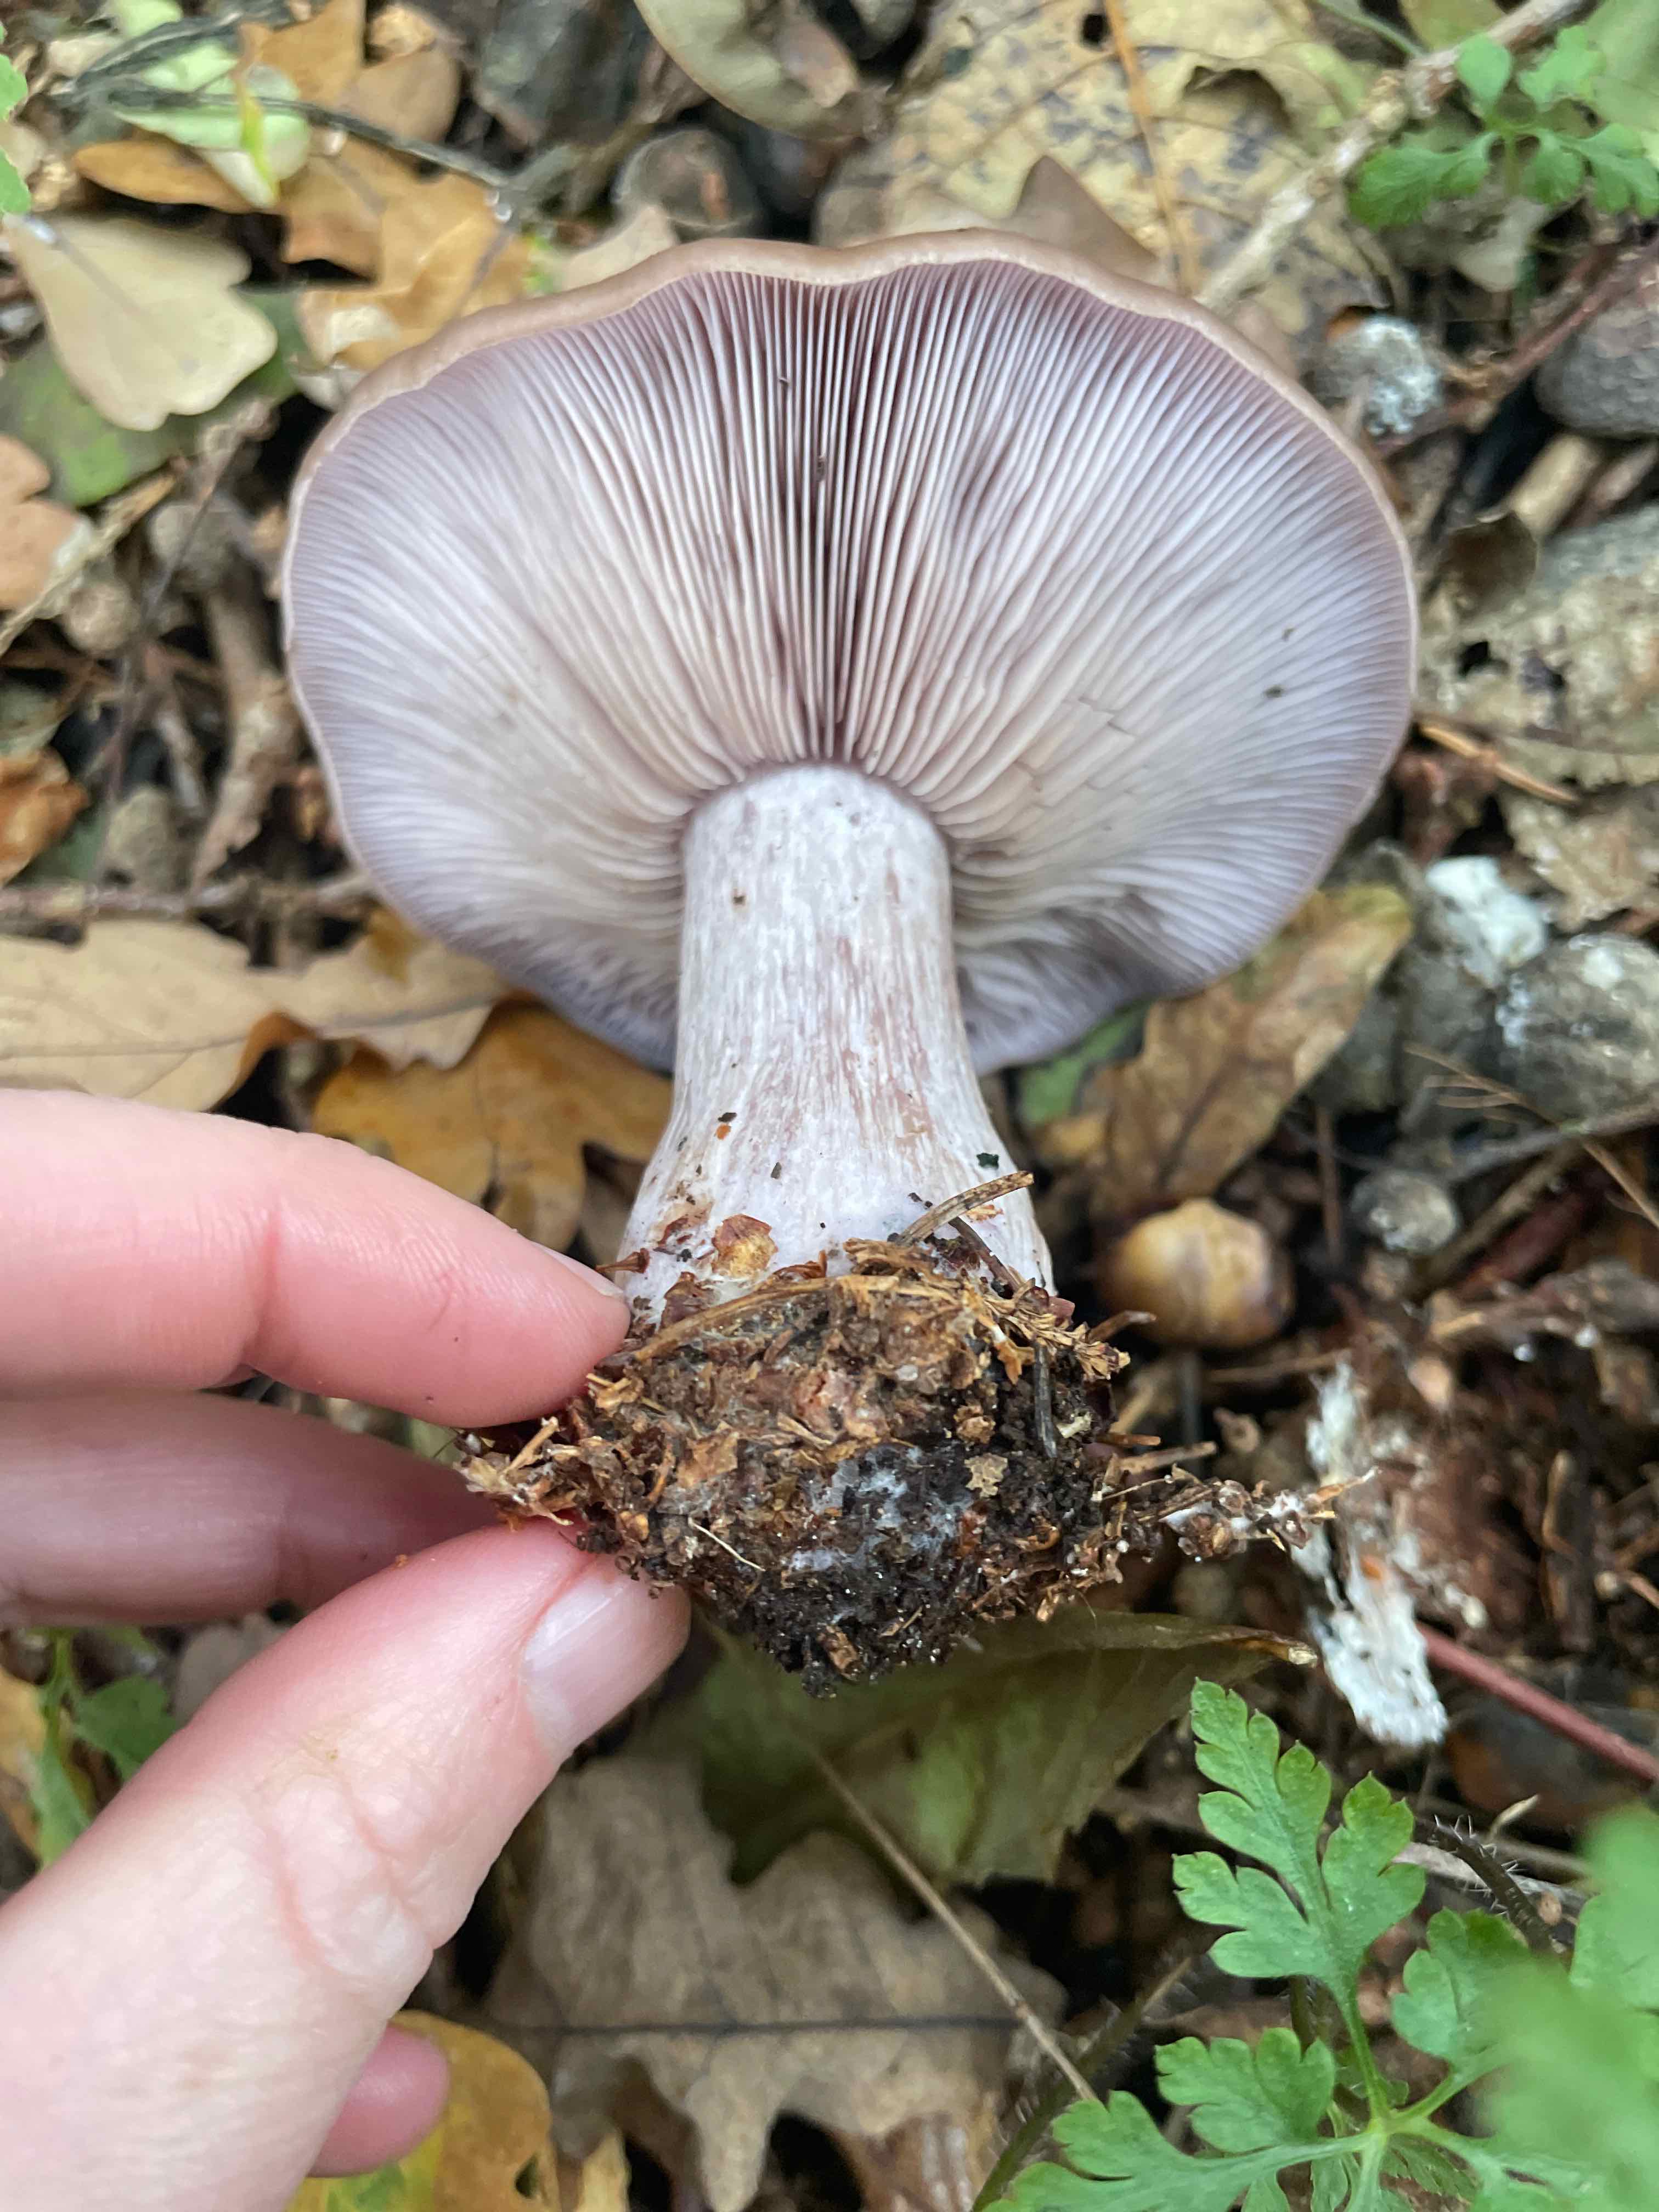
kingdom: Fungi
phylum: Basidiomycota
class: Agaricomycetes
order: Agaricales
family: Tricholomataceae
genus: Lepista
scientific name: Lepista nuda
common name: violet hekseringshat
